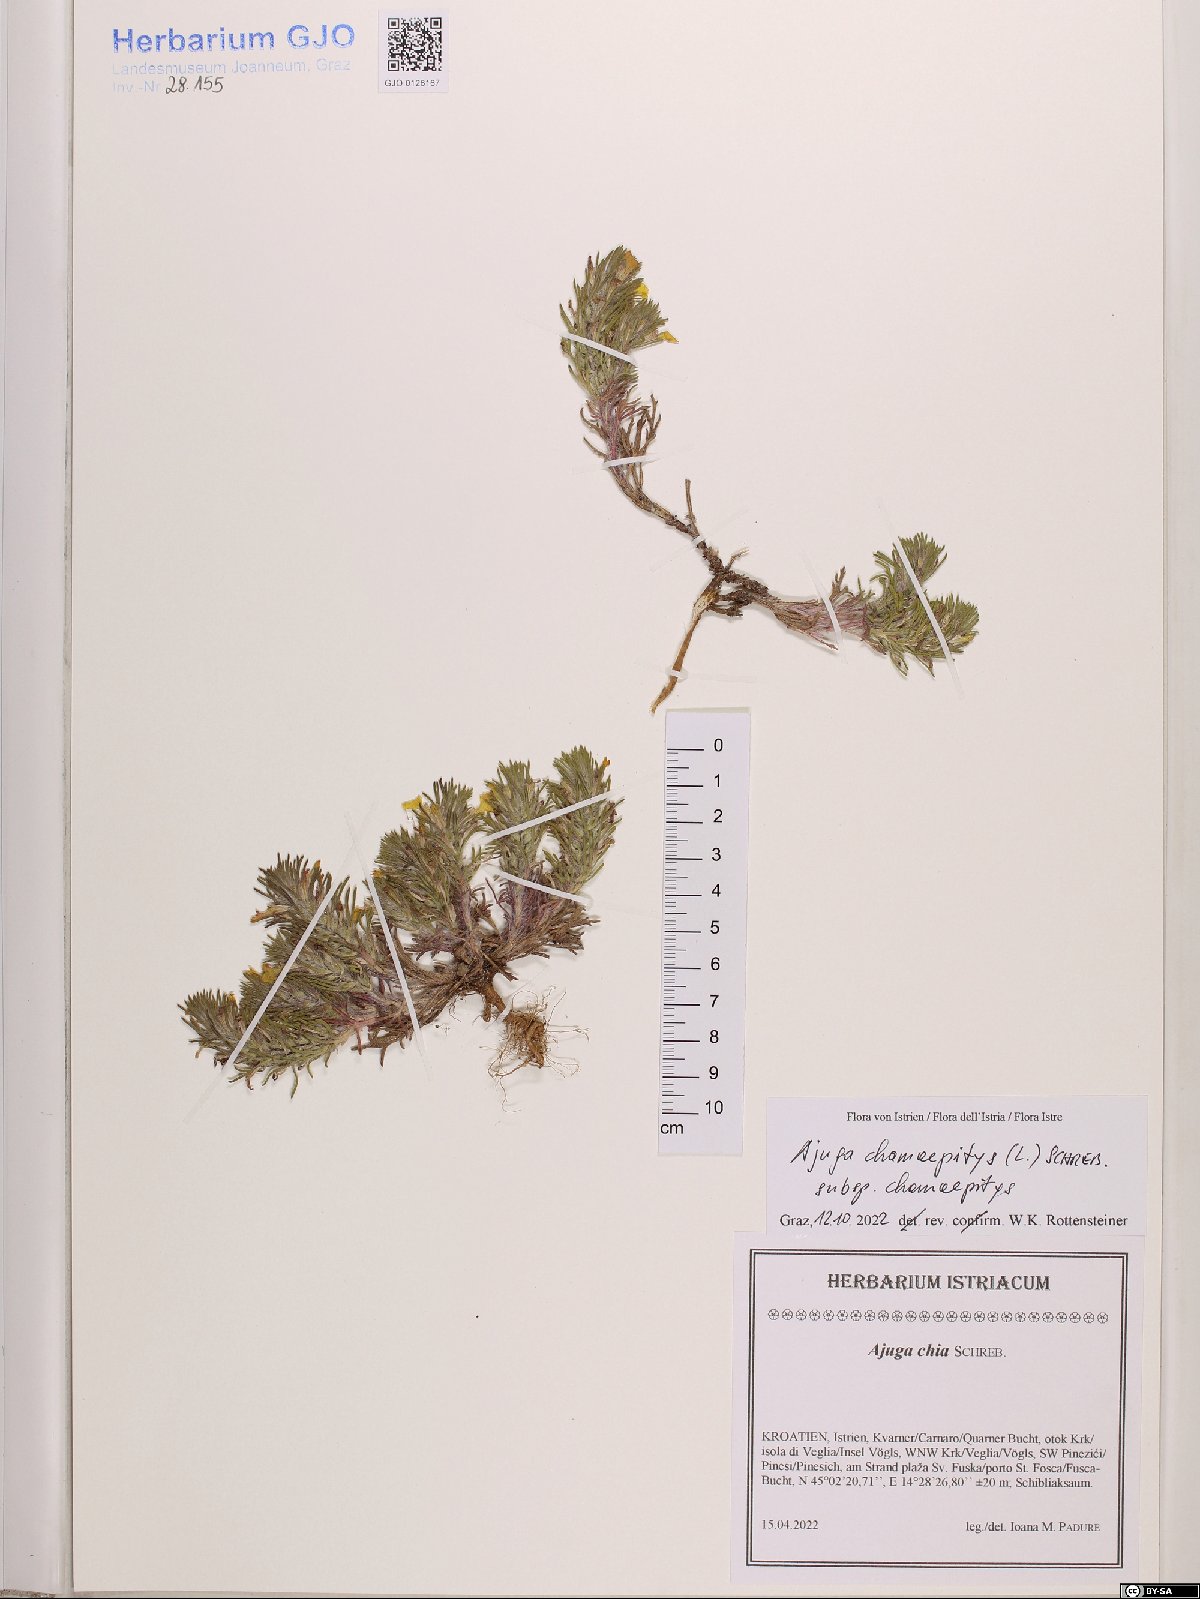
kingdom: Plantae
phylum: Tracheophyta
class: Magnoliopsida
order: Lamiales
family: Lamiaceae
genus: Ajuga
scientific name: Ajuga chamaepitys
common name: Ground-pine
